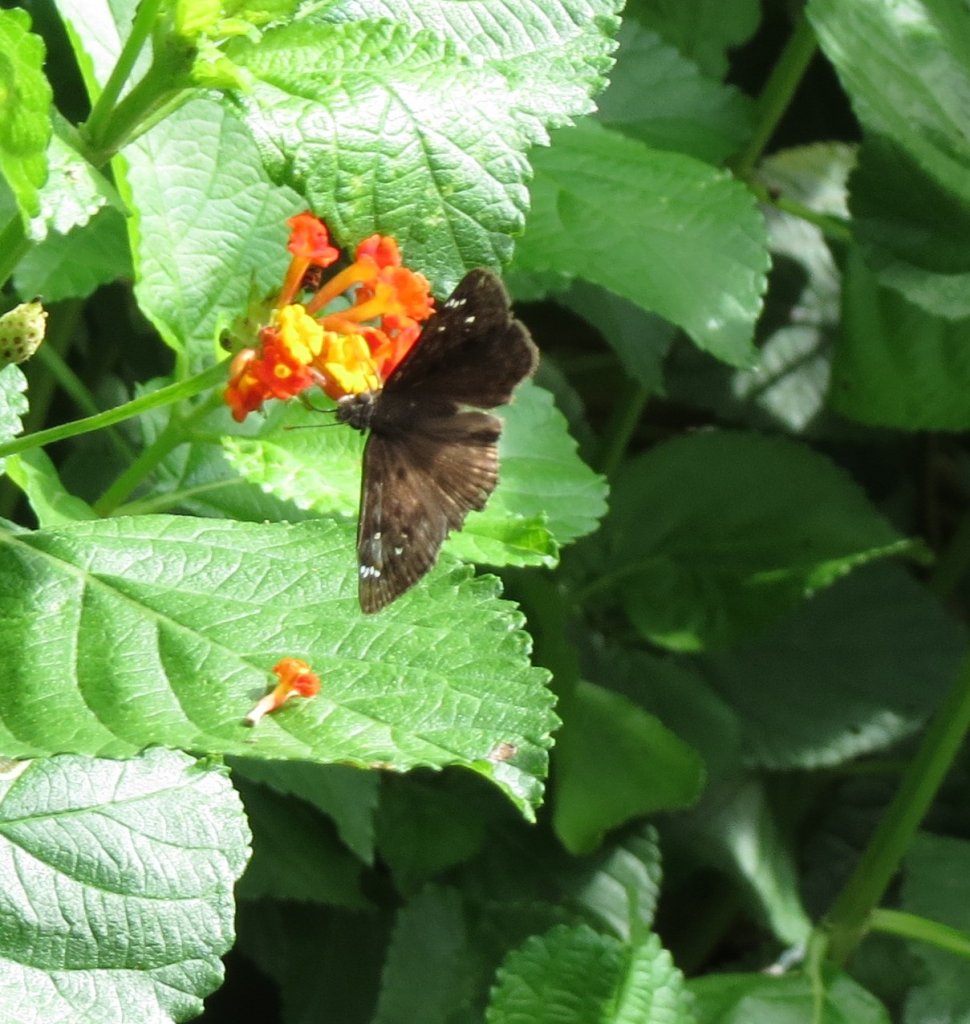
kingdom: Animalia
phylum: Arthropoda
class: Insecta
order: Lepidoptera
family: Hesperiidae
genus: Gesta
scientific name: Gesta
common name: Horace's Duskywing
